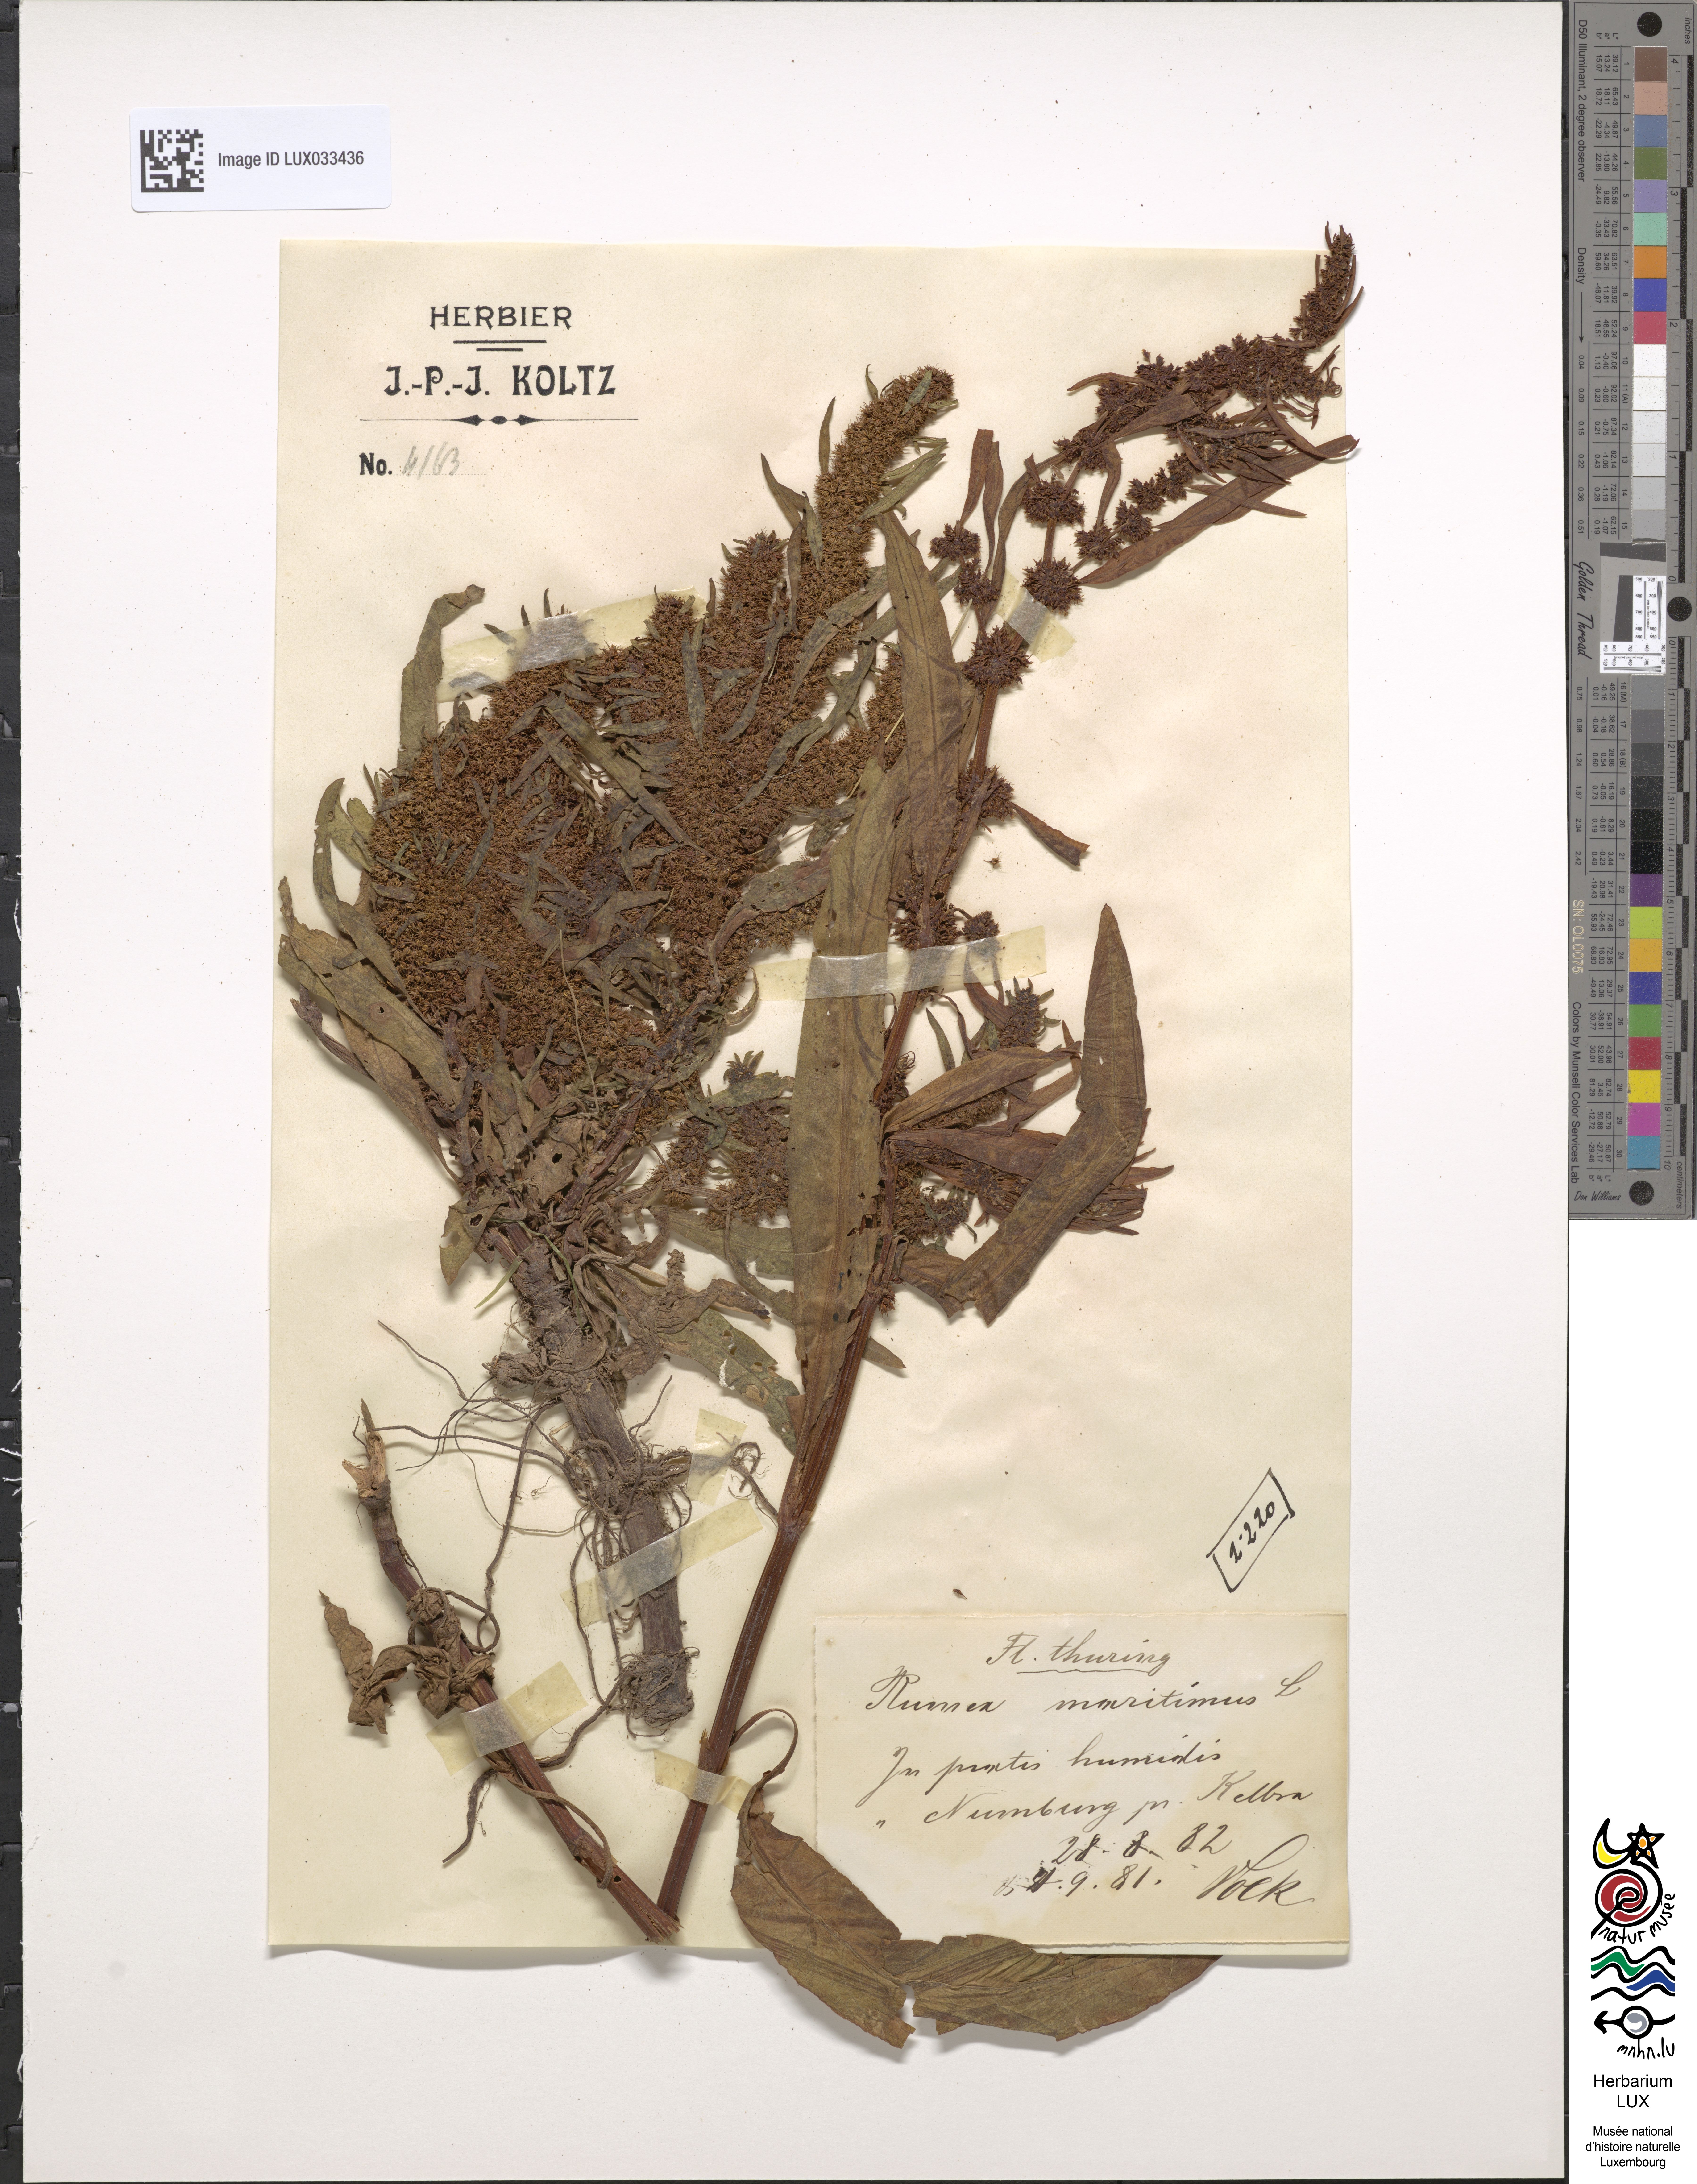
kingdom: Plantae
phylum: Tracheophyta
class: Magnoliopsida
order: Caryophyllales
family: Polygonaceae
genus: Rumex
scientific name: Rumex maritimus
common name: Golden dock
